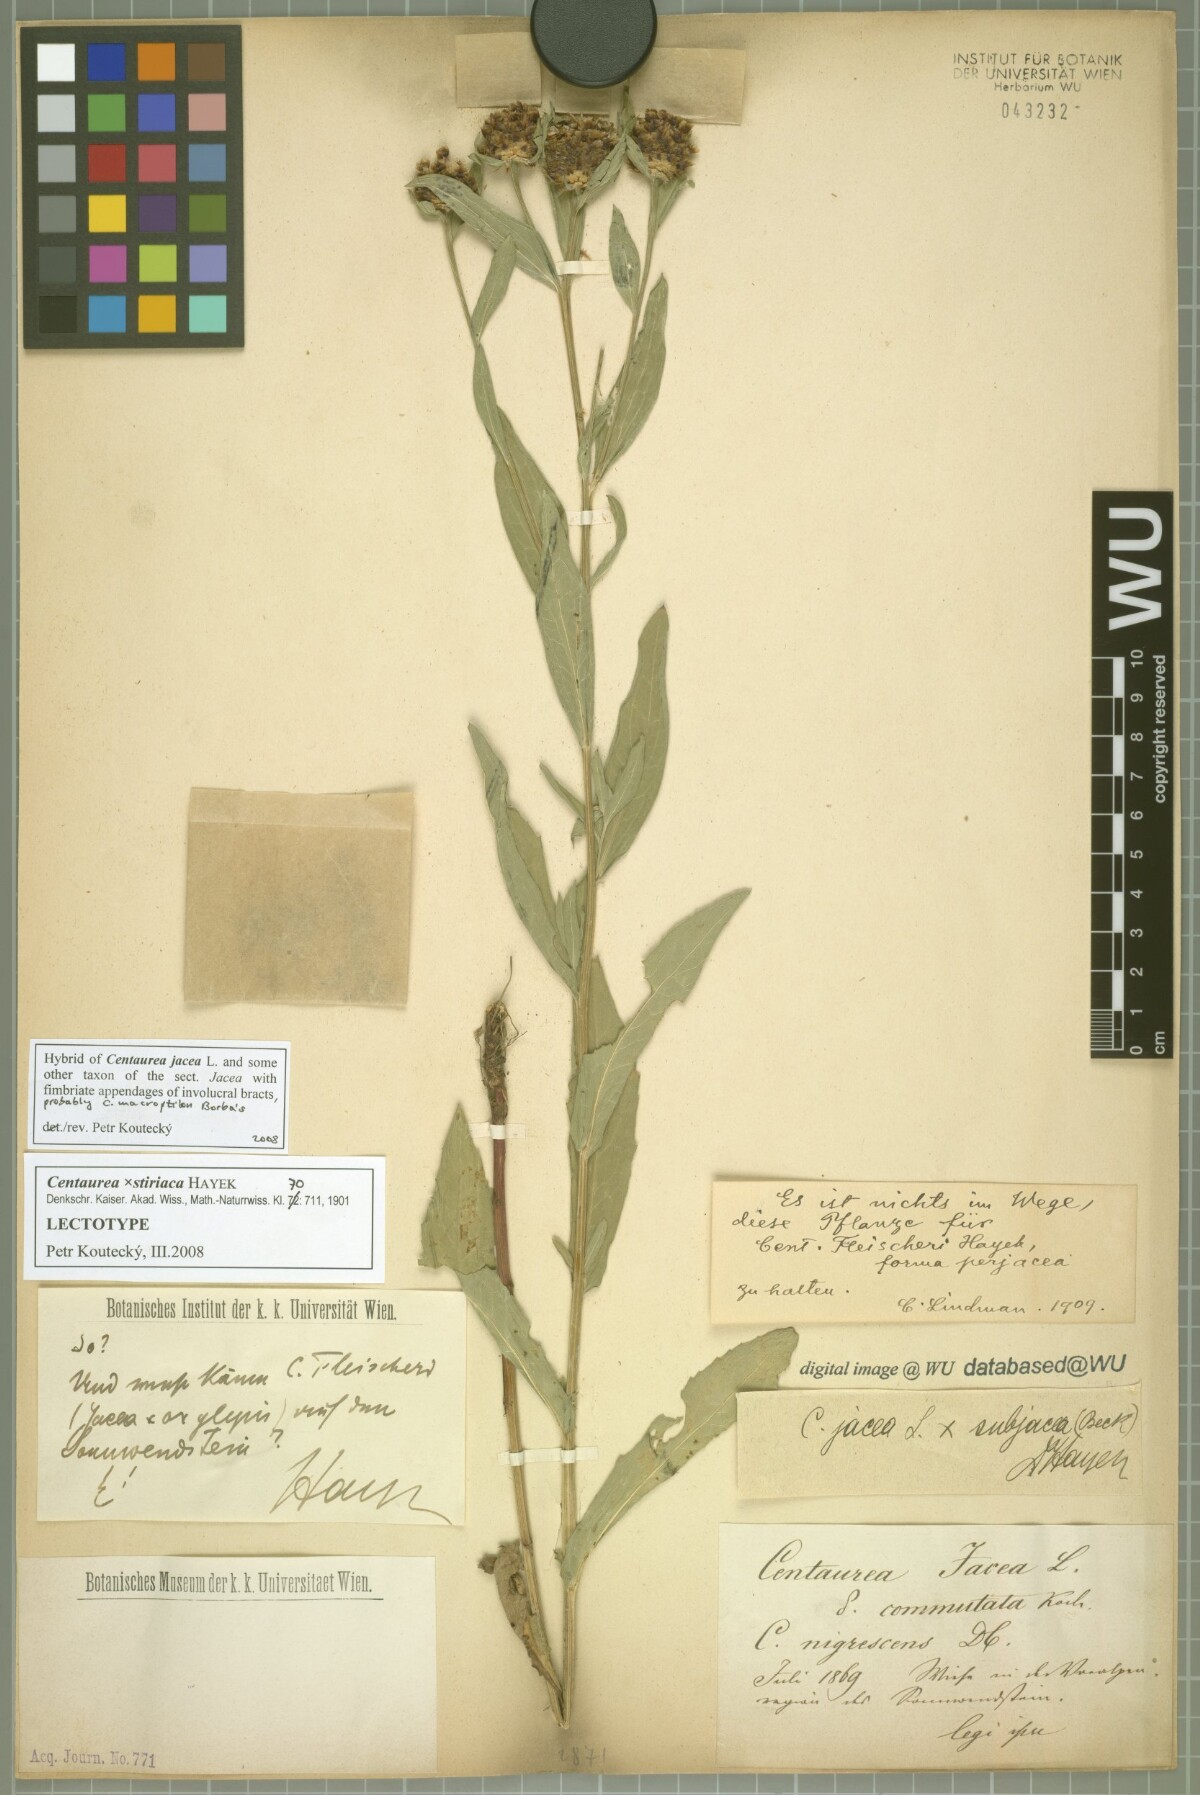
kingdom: Plantae
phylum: Tracheophyta
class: Magnoliopsida
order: Asterales
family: Asteraceae
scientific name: Asteraceae
